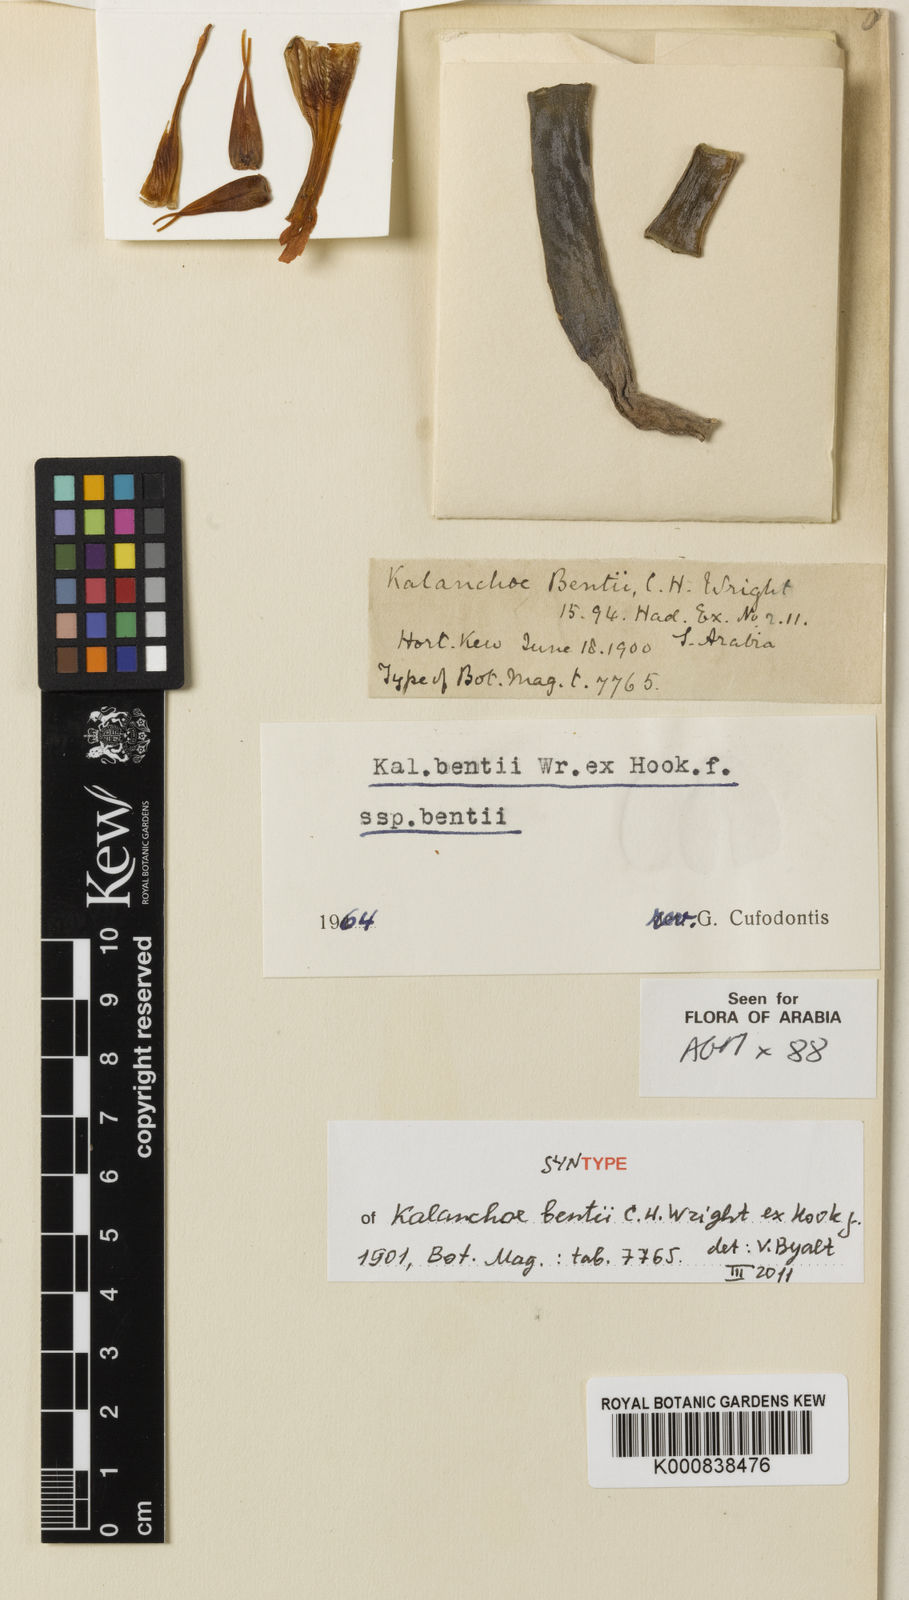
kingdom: Plantae
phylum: Tracheophyta
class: Magnoliopsida
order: Saxifragales
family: Crassulaceae
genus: Kalanchoe
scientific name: Kalanchoe bentii
